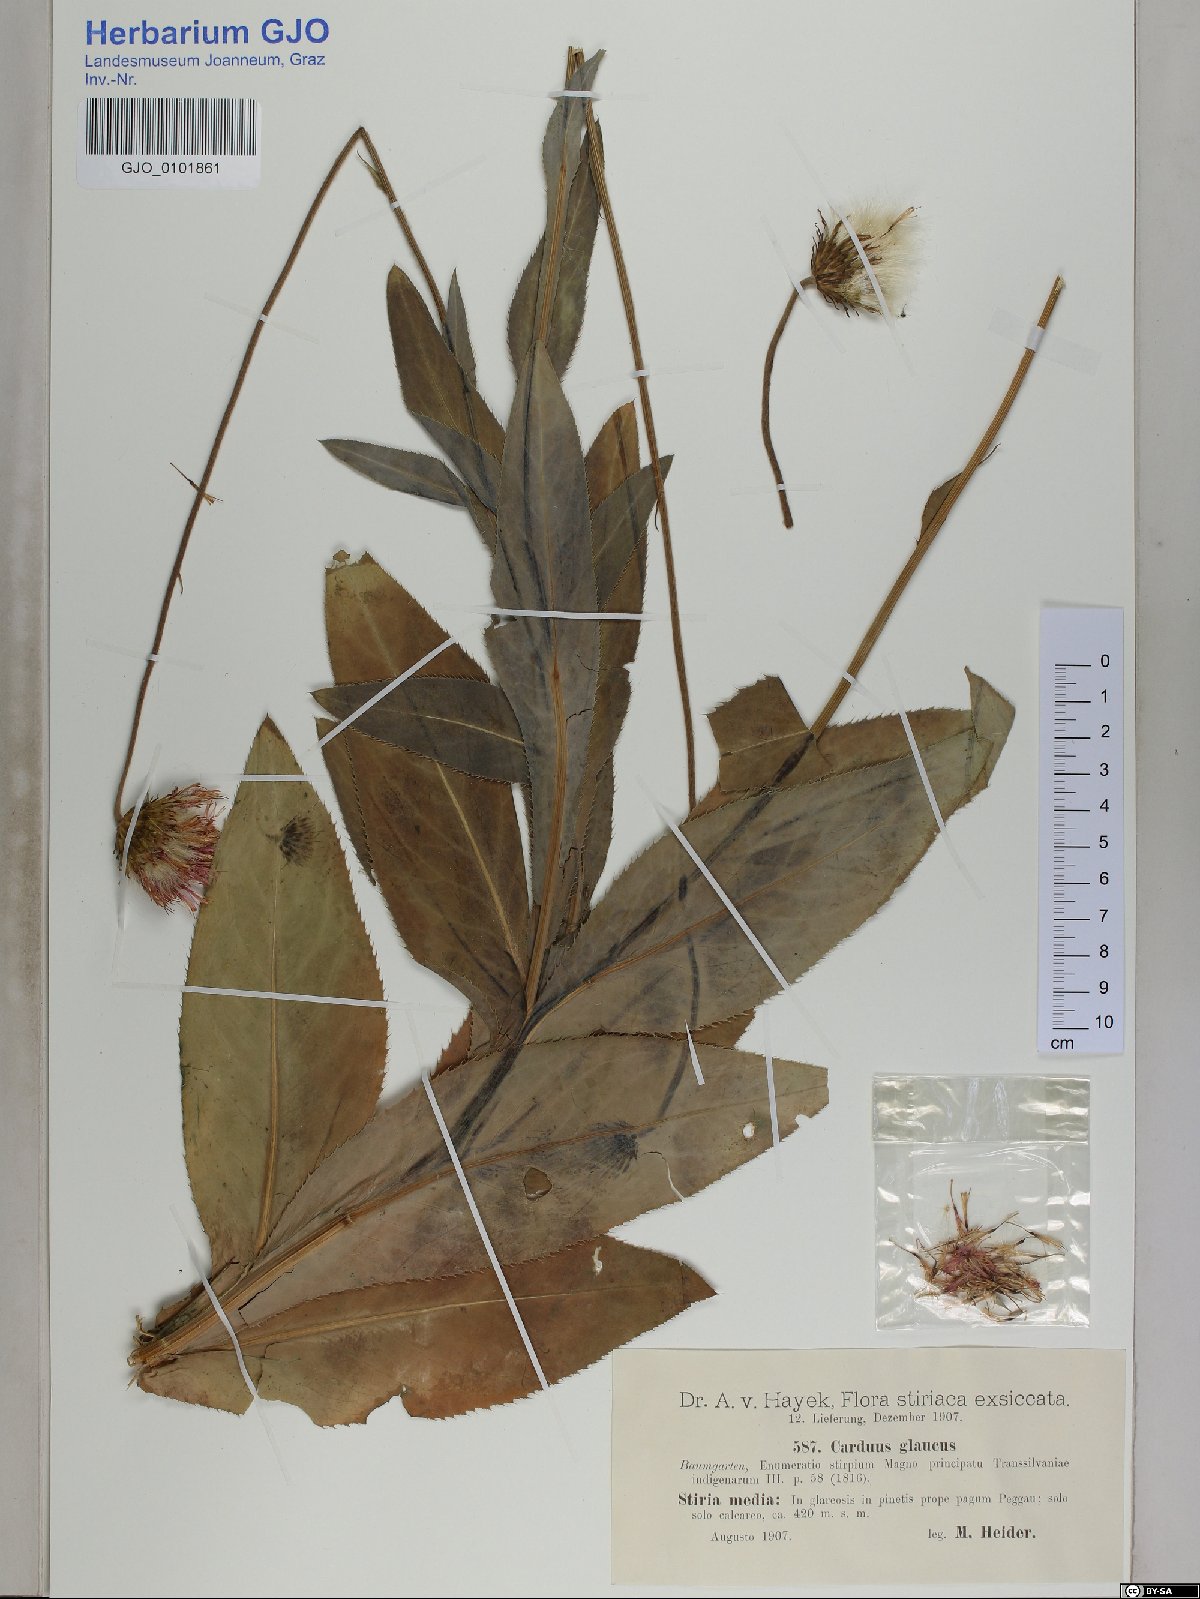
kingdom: Plantae
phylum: Tracheophyta
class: Magnoliopsida
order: Asterales
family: Asteraceae
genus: Carduus
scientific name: Carduus defloratus
